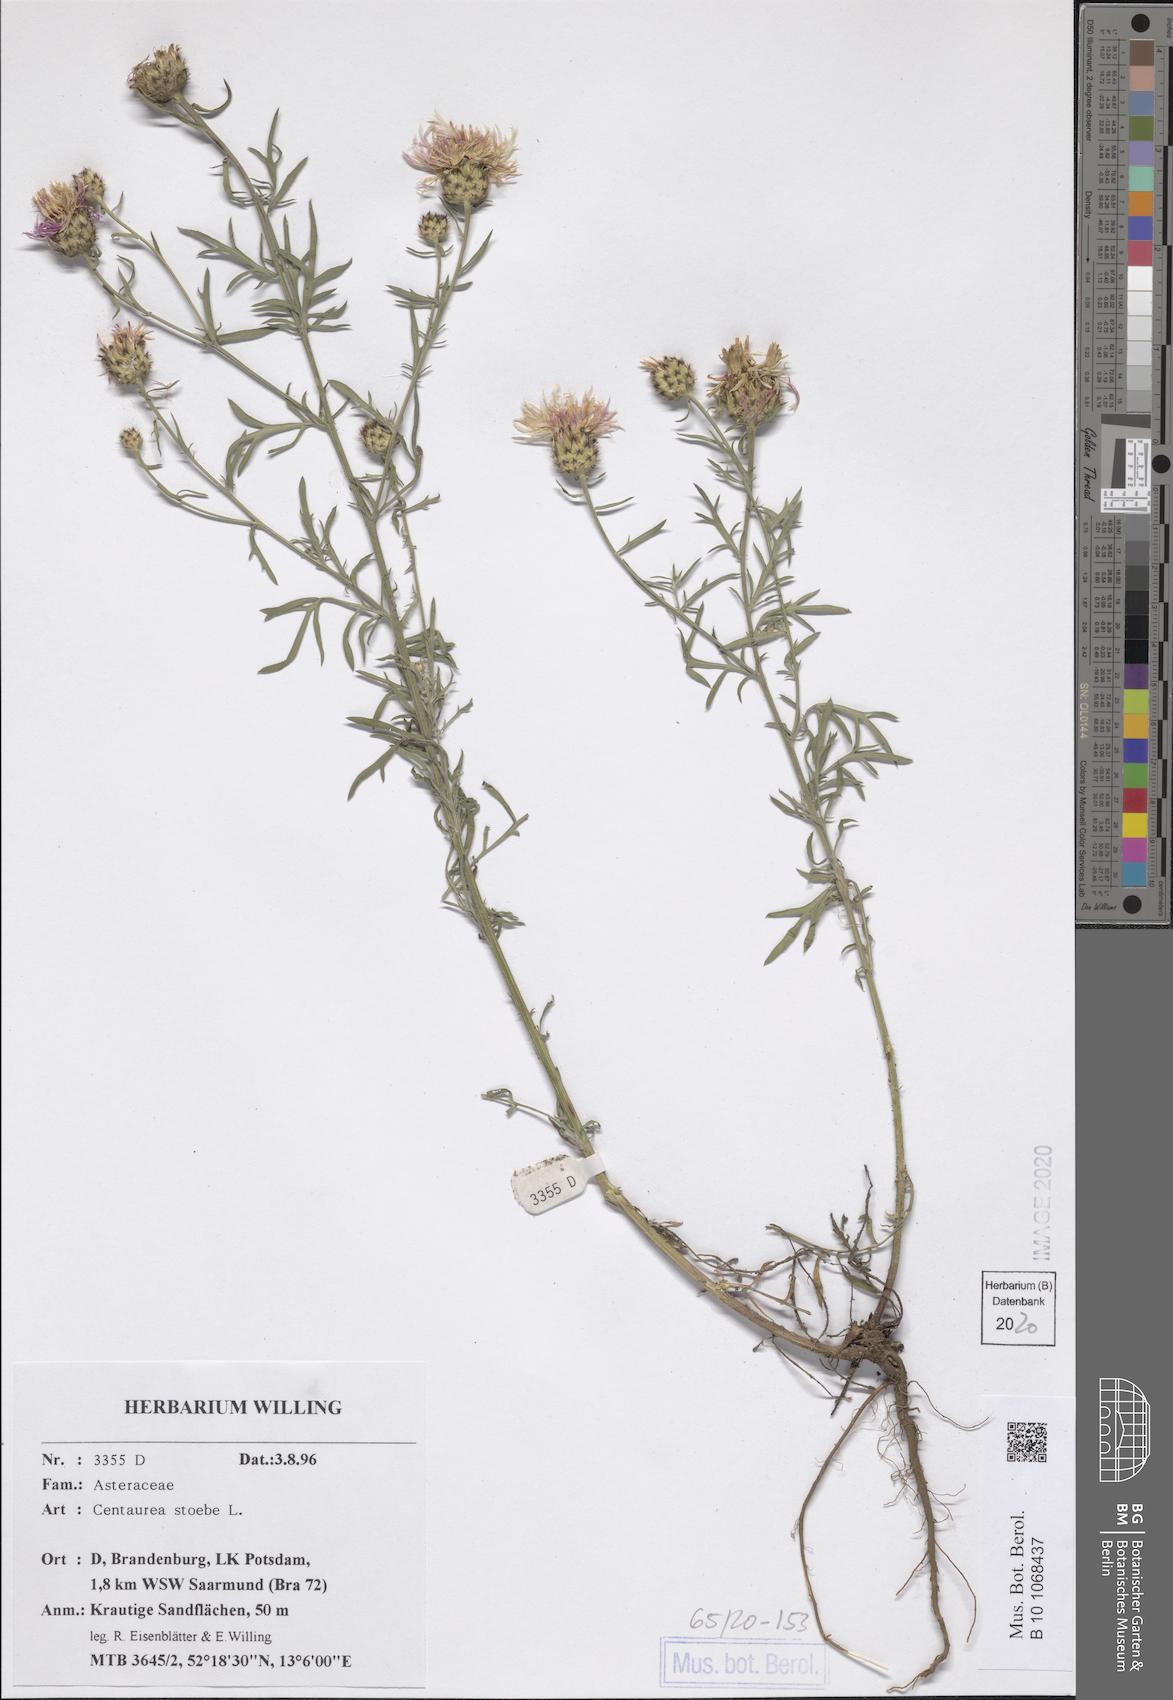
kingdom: Plantae
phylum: Tracheophyta
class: Magnoliopsida
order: Asterales
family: Asteraceae
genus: Centaurea
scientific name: Centaurea stoebe
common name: Spotted knapweed
